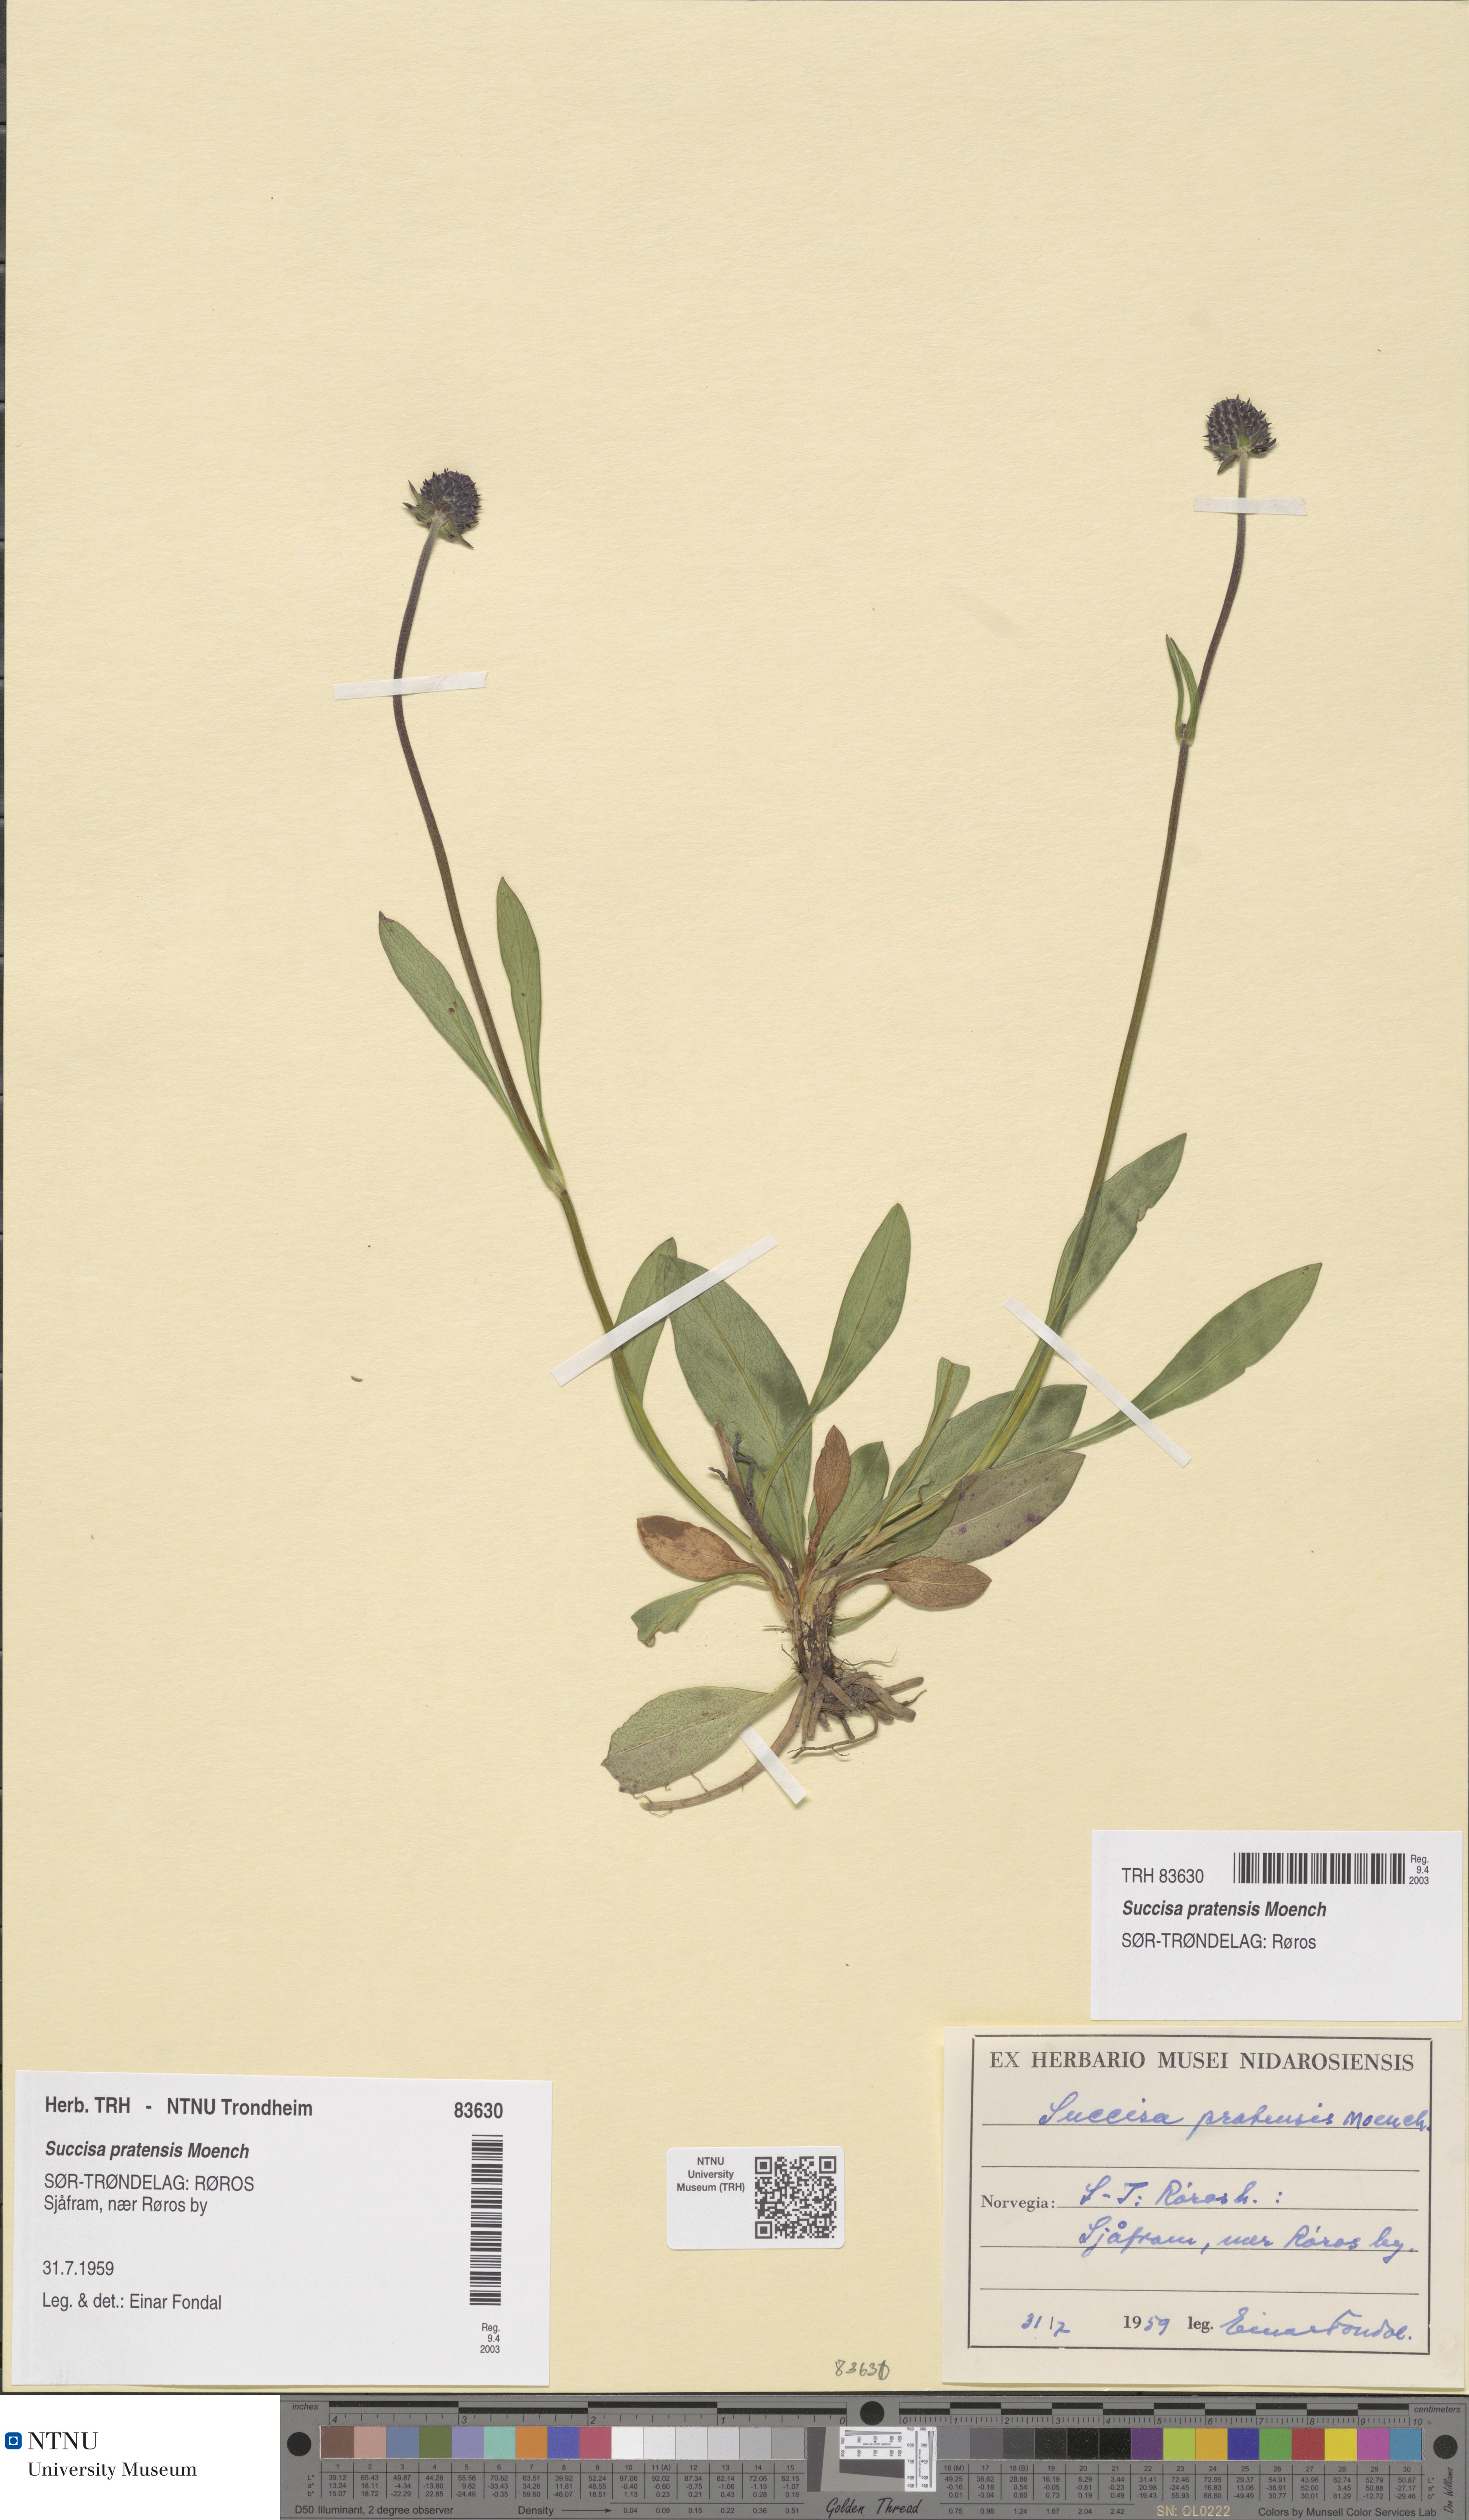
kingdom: Plantae
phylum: Tracheophyta
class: Magnoliopsida
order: Dipsacales
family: Caprifoliaceae
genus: Succisa
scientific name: Succisa pratensis
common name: Devil's-bit
